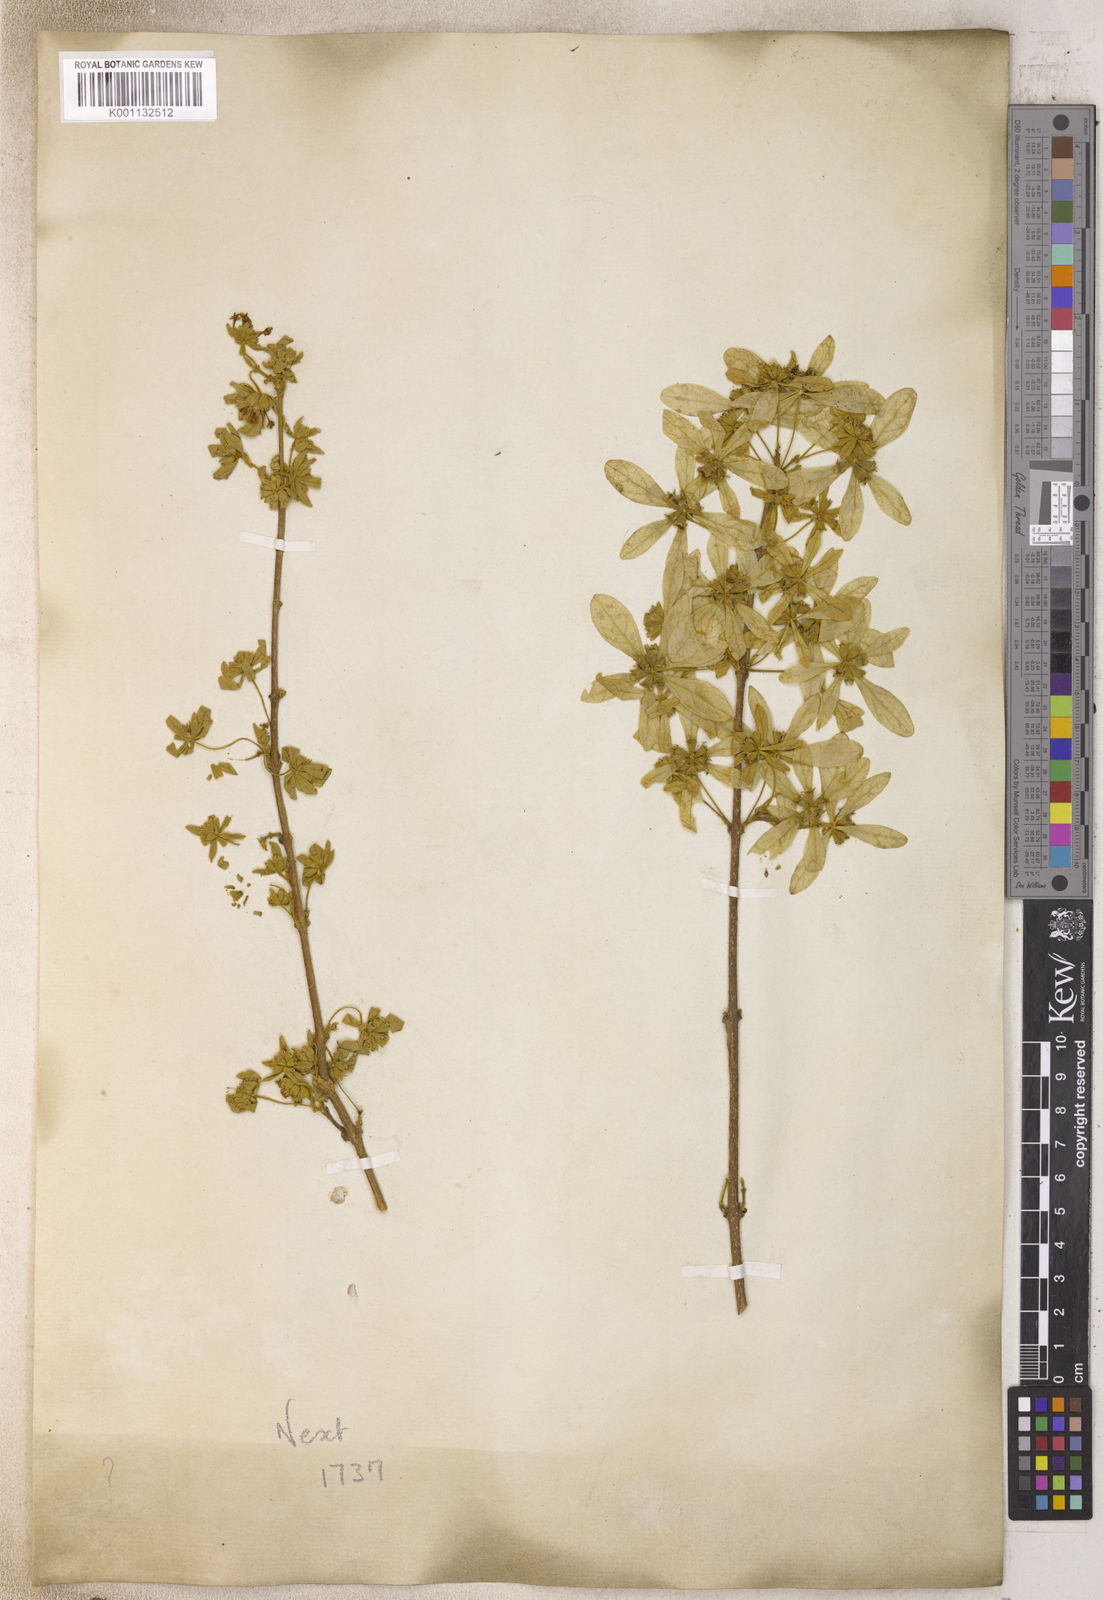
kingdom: Plantae
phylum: Tracheophyta
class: Magnoliopsida
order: Lamiales
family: Lamiaceae
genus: Congea
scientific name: Congea
